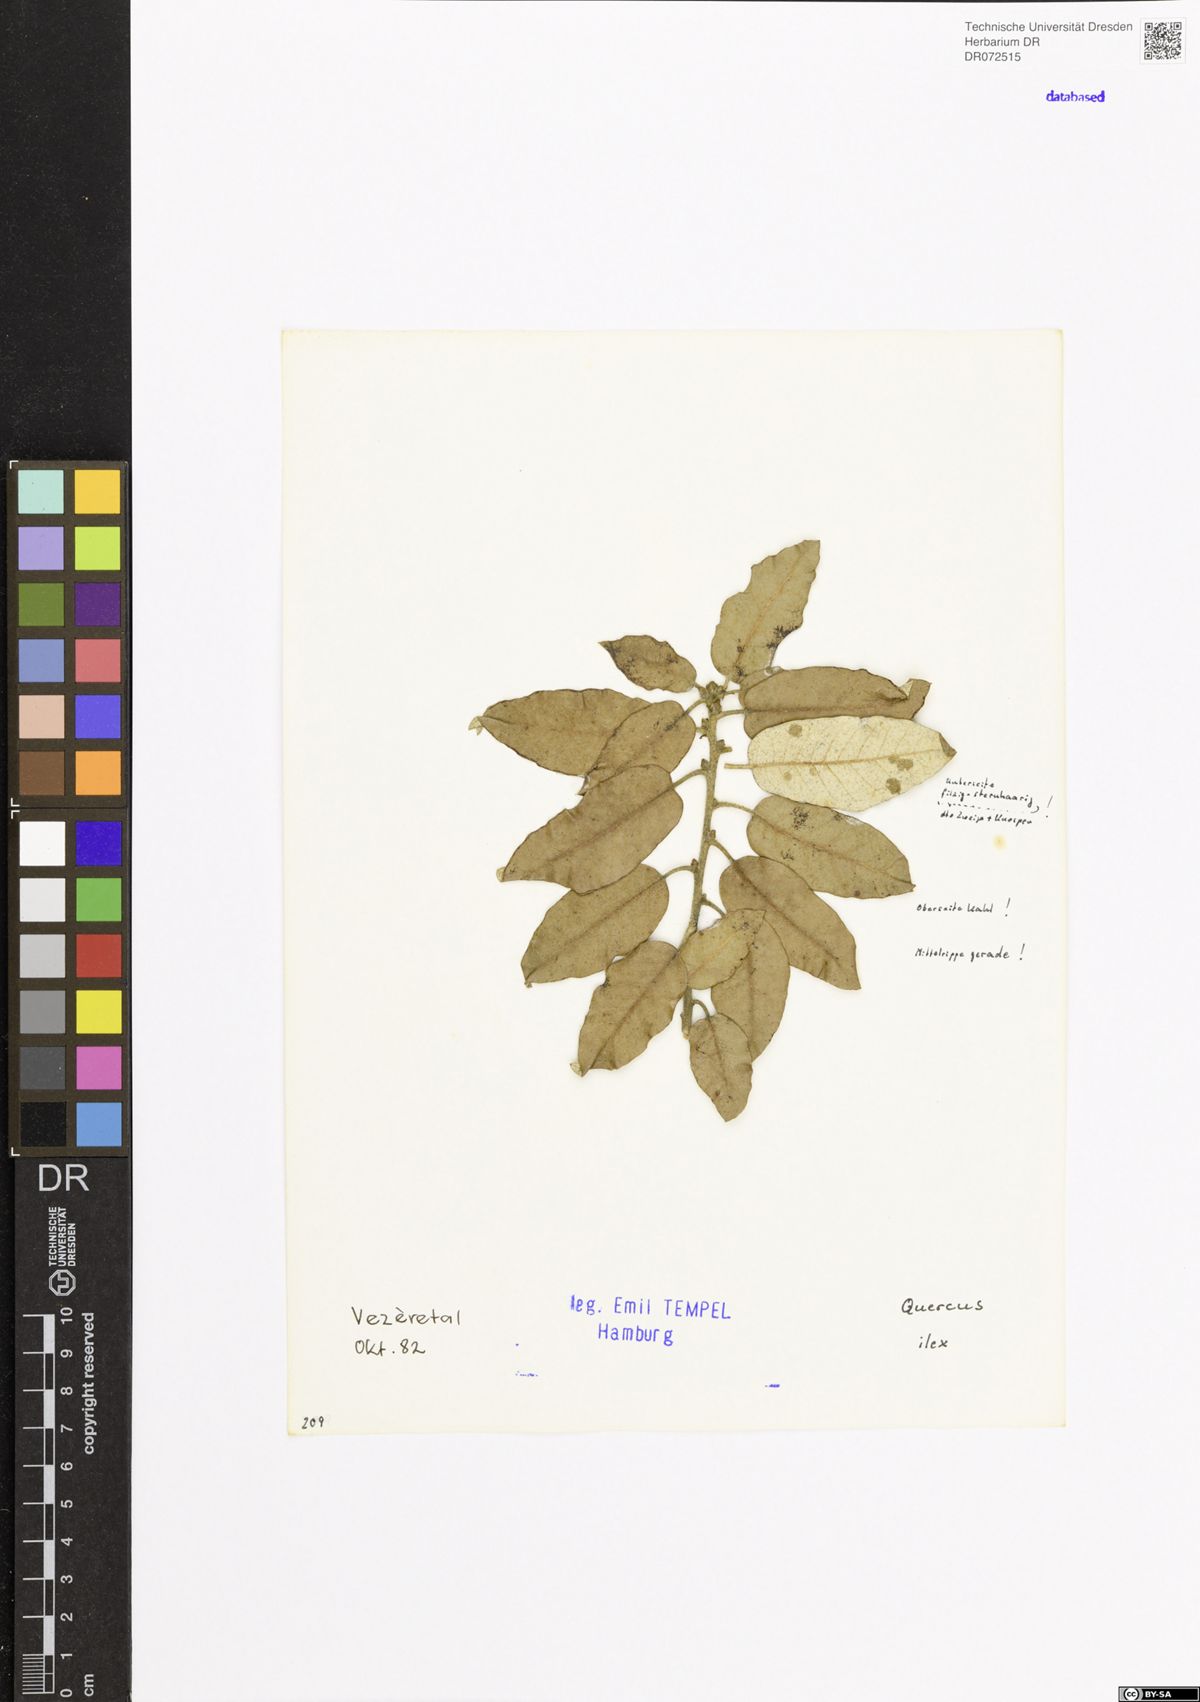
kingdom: Plantae
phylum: Tracheophyta
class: Magnoliopsida
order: Fagales
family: Fagaceae
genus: Quercus
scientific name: Quercus ilex
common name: Evergreen oak
